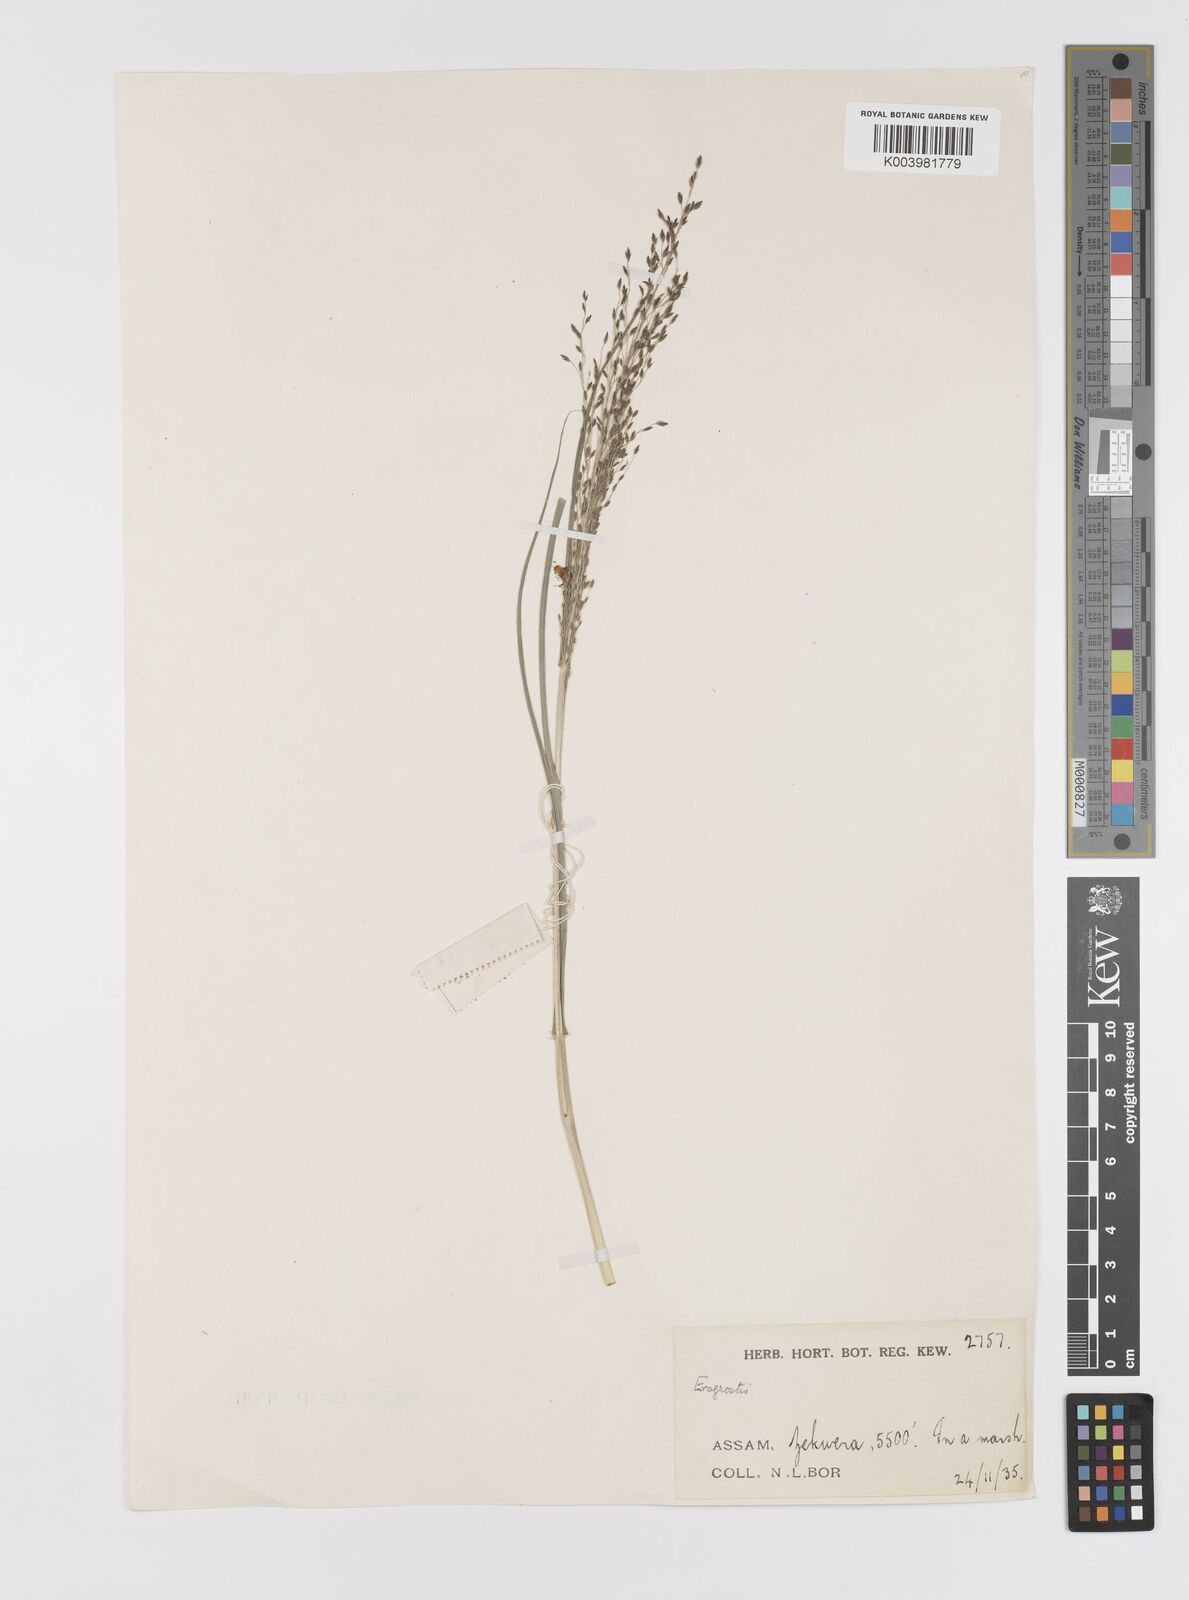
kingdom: Plantae
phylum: Tracheophyta
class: Liliopsida
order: Poales
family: Poaceae
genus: Eragrostis
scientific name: Eragrostis nigra
